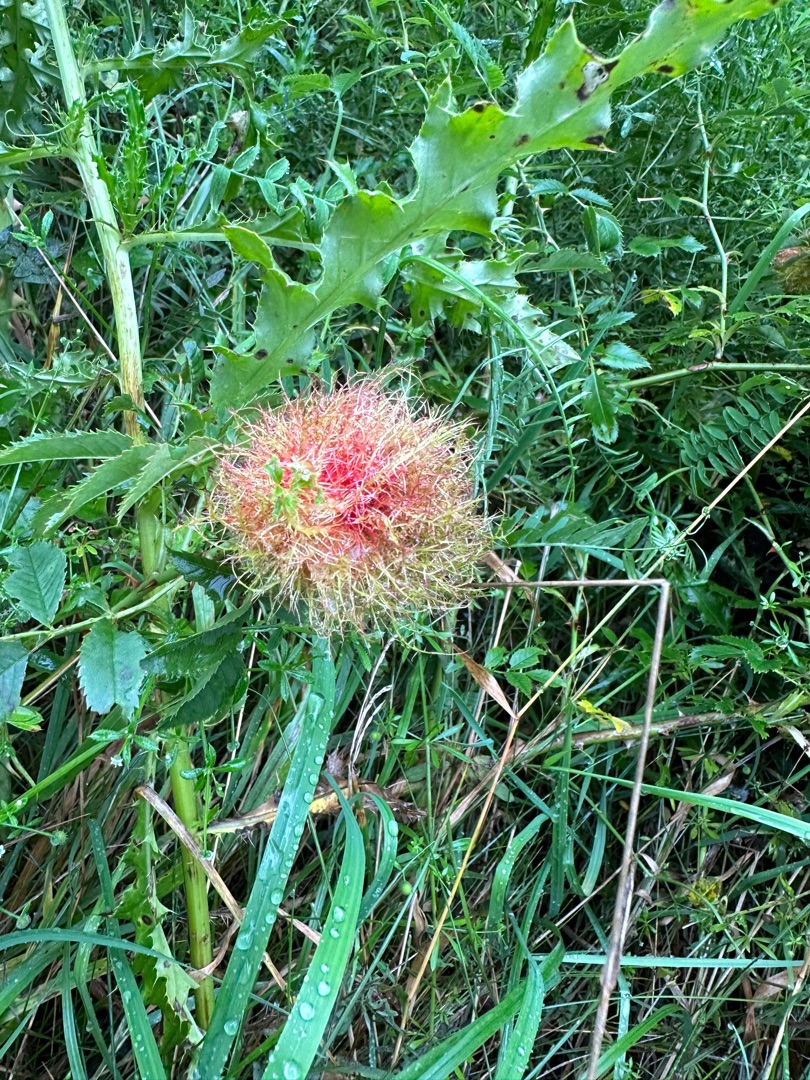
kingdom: Animalia
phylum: Arthropoda
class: Insecta
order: Hymenoptera
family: Cynipidae
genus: Diplolepis
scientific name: Diplolepis rosae
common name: Bedeguargalhveps
